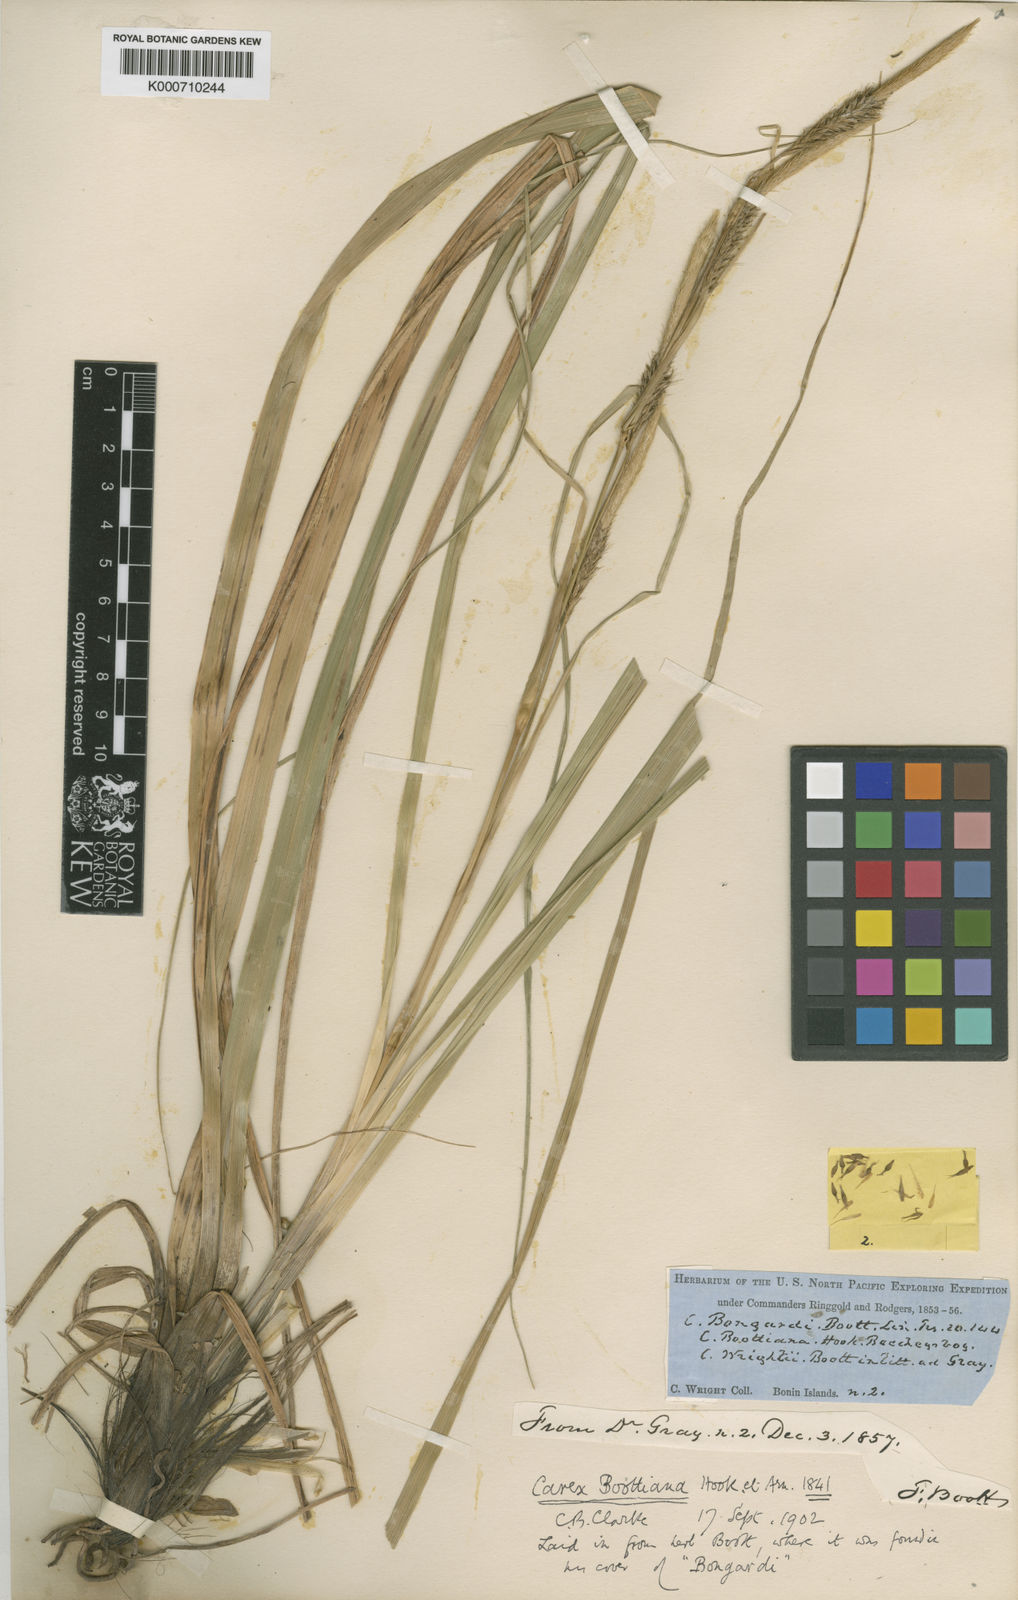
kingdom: Plantae
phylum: Tracheophyta
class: Liliopsida
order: Poales
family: Cyperaceae
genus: Carex
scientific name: Carex wahuensis
